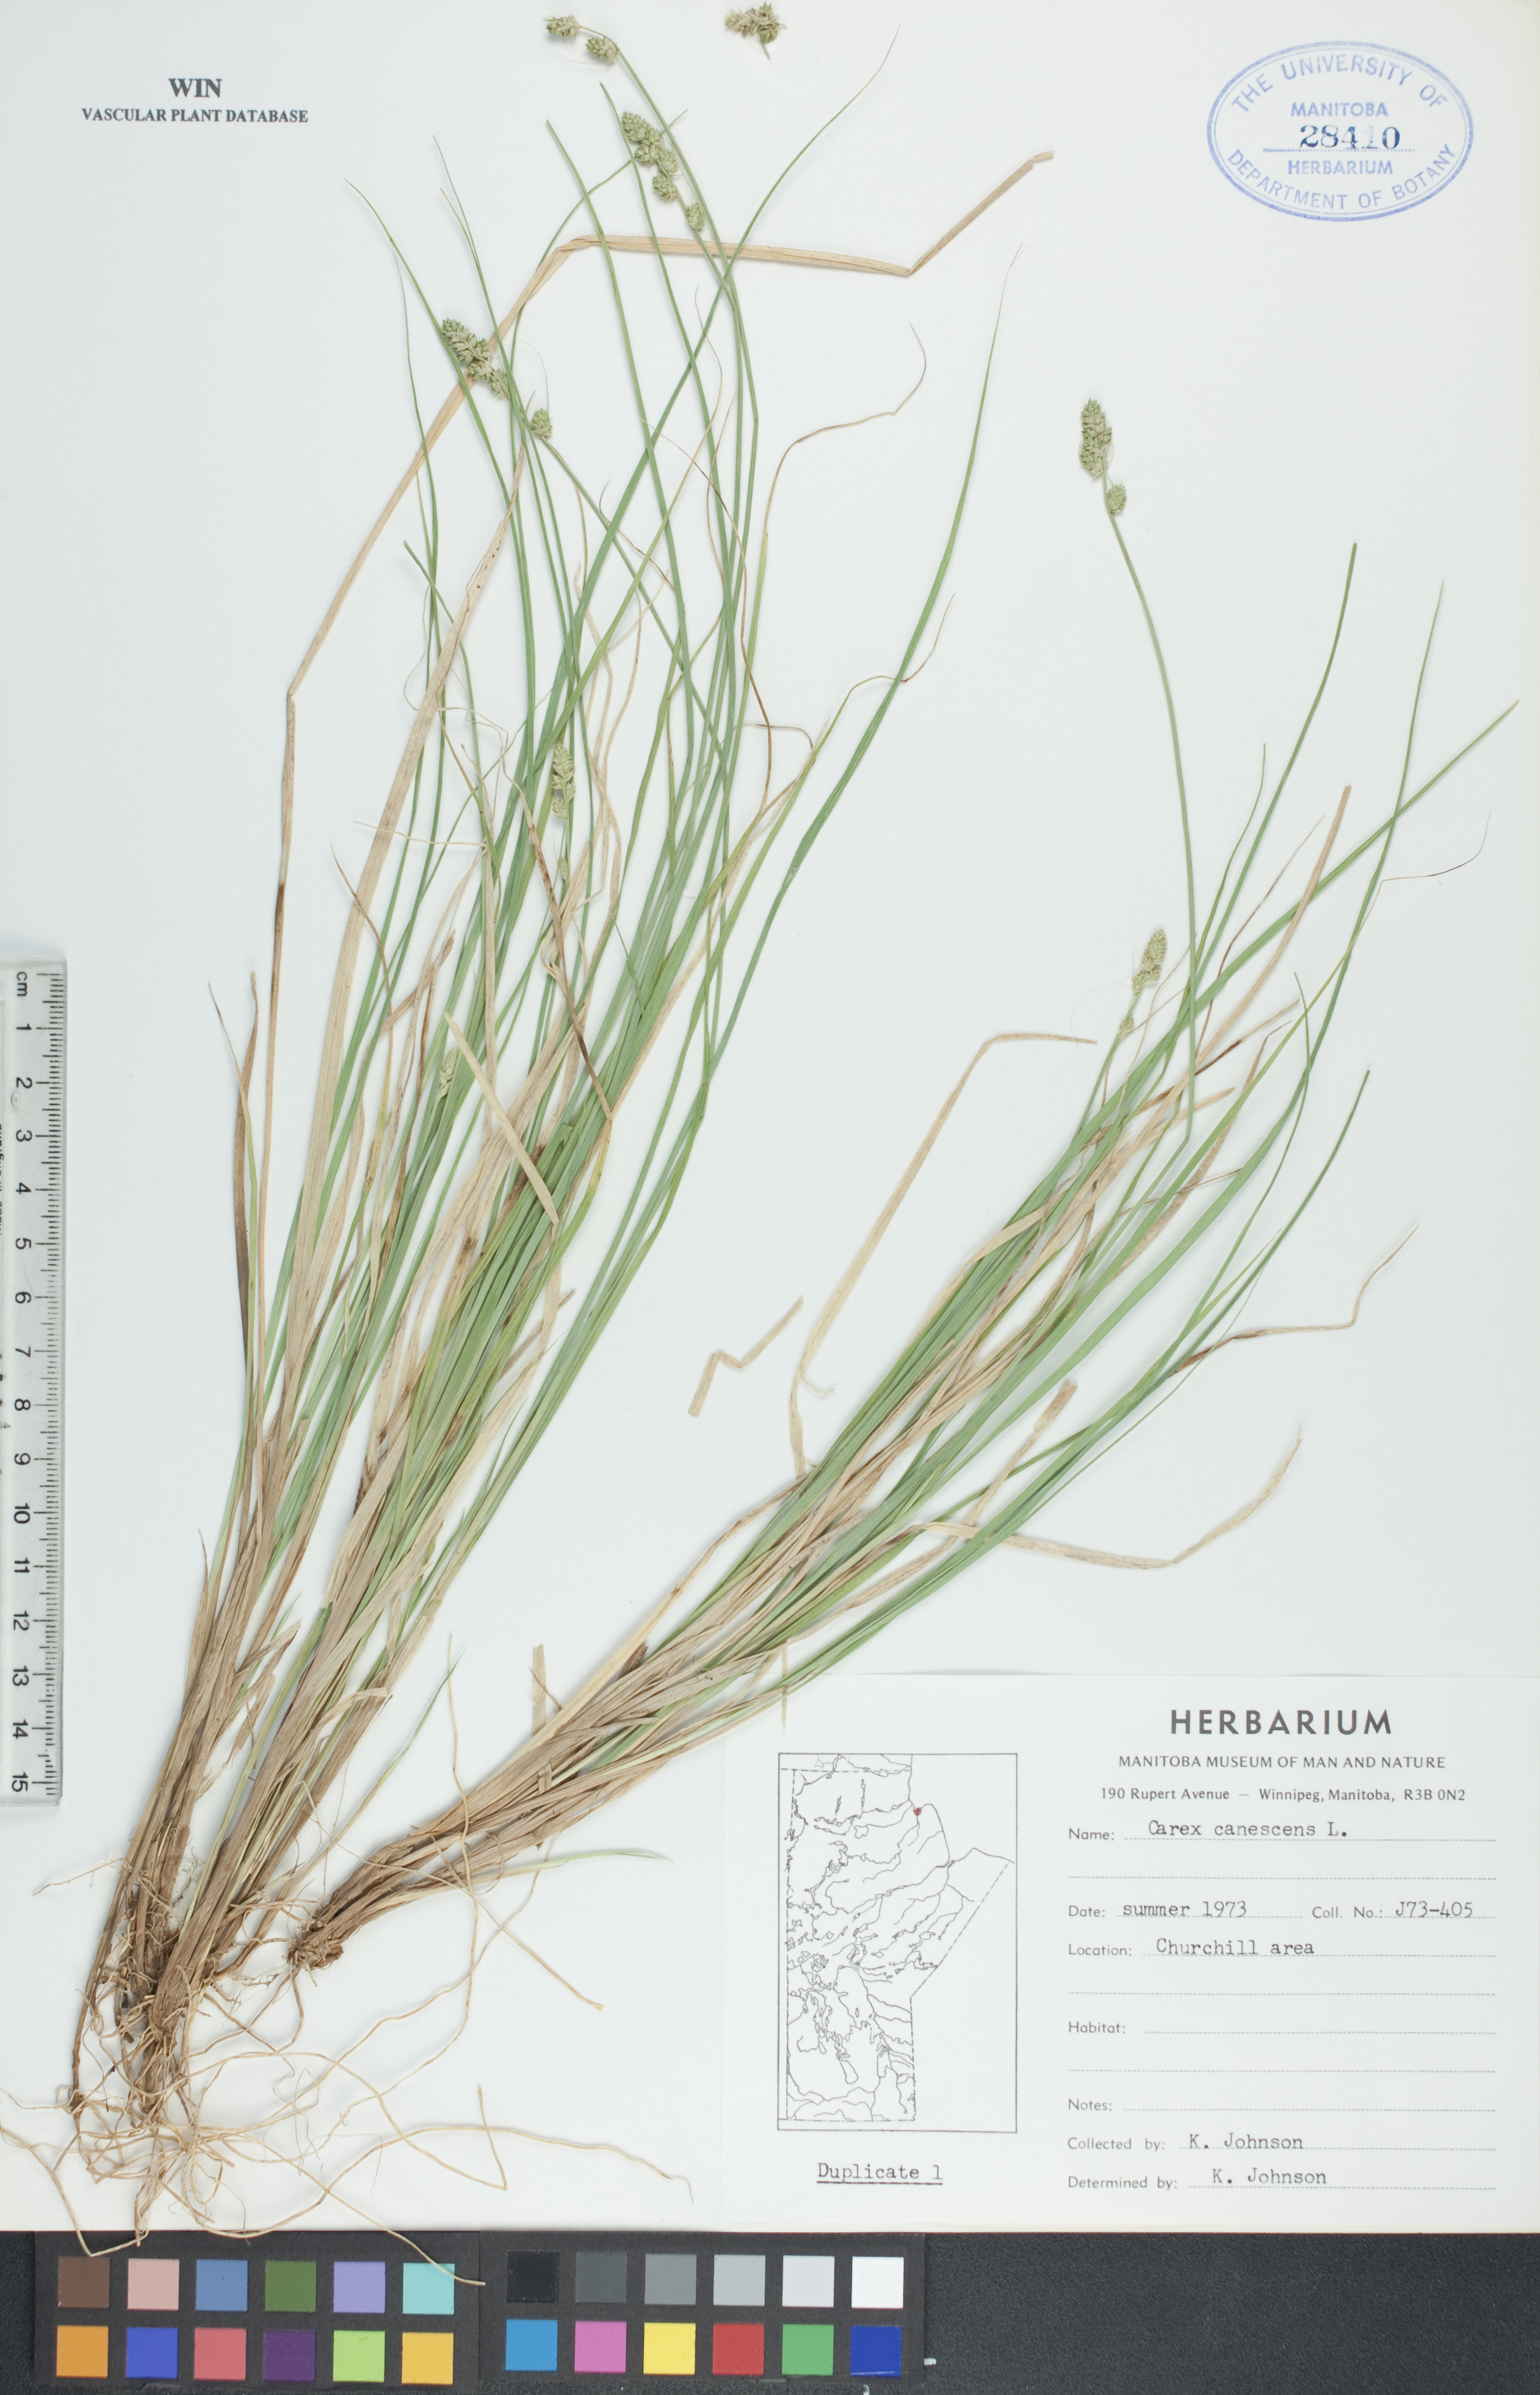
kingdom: Plantae
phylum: Tracheophyta
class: Liliopsida
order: Poales
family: Cyperaceae
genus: Carex
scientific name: Carex canescens
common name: White sedge
